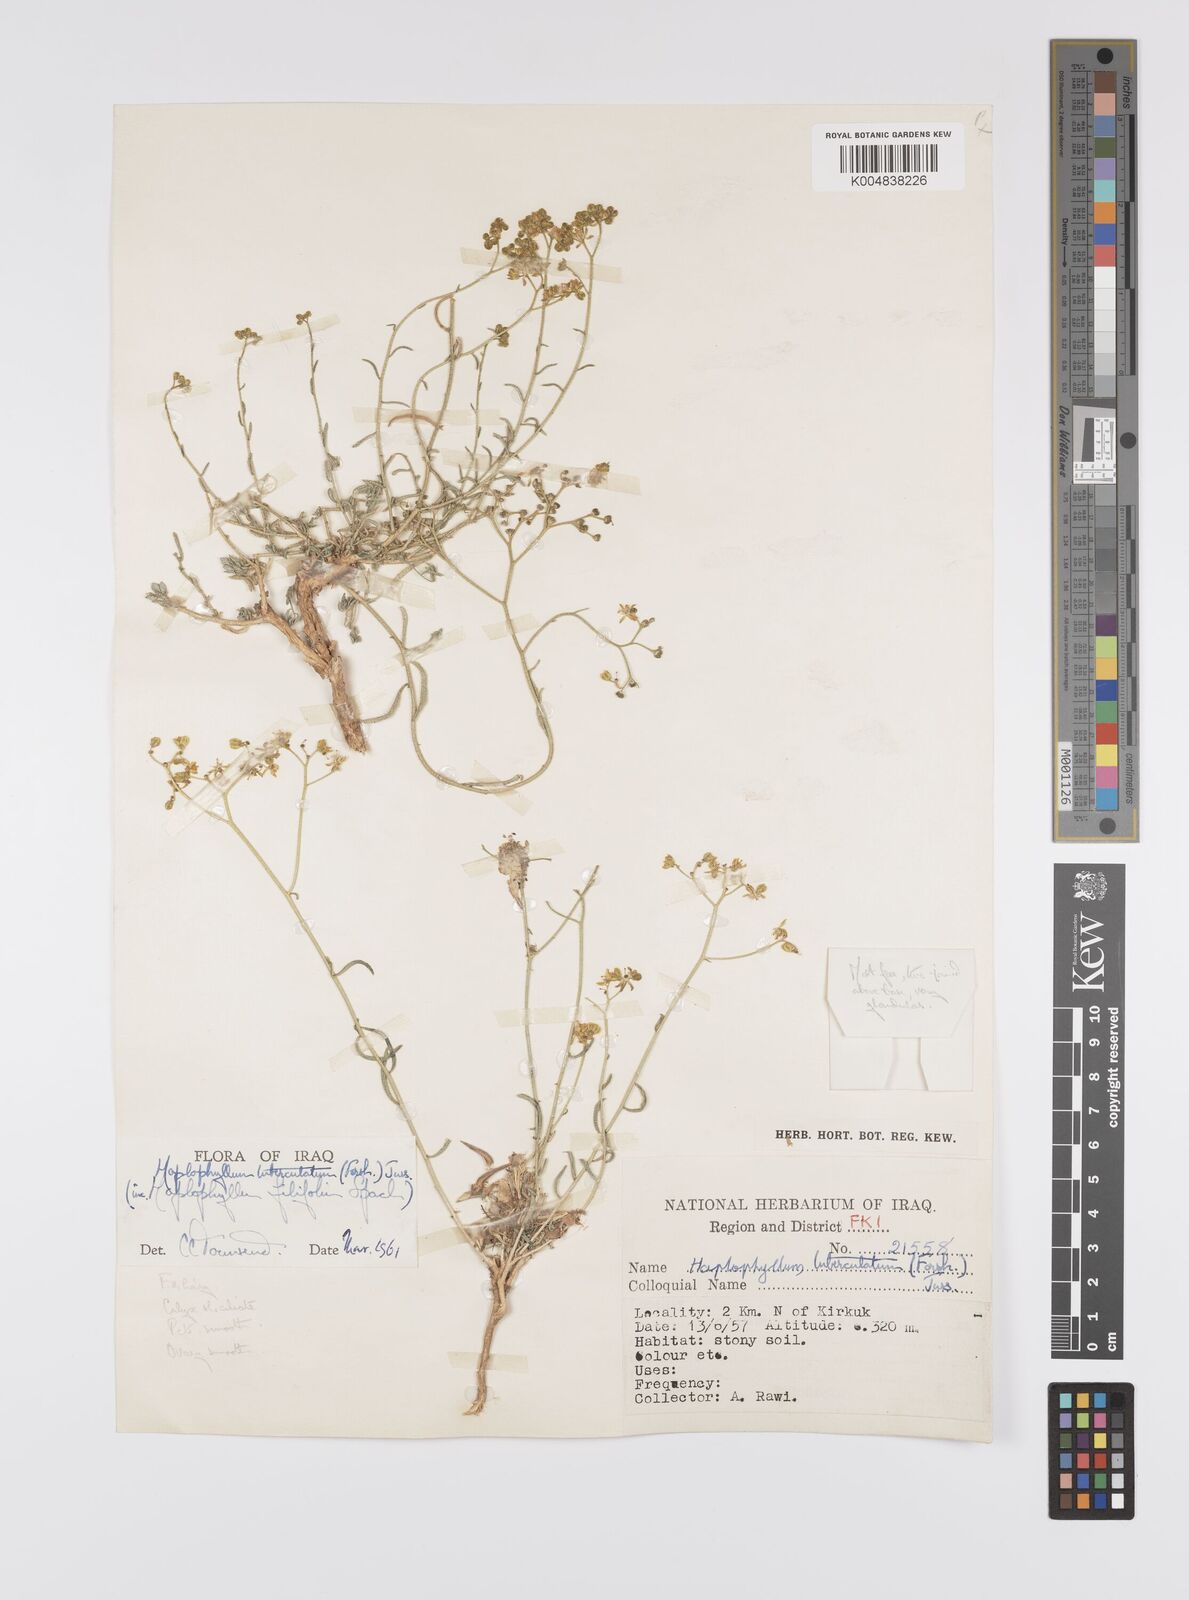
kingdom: Plantae
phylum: Tracheophyta
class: Magnoliopsida
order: Sapindales
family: Rutaceae
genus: Haplophyllum
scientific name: Haplophyllum tuberculatum
